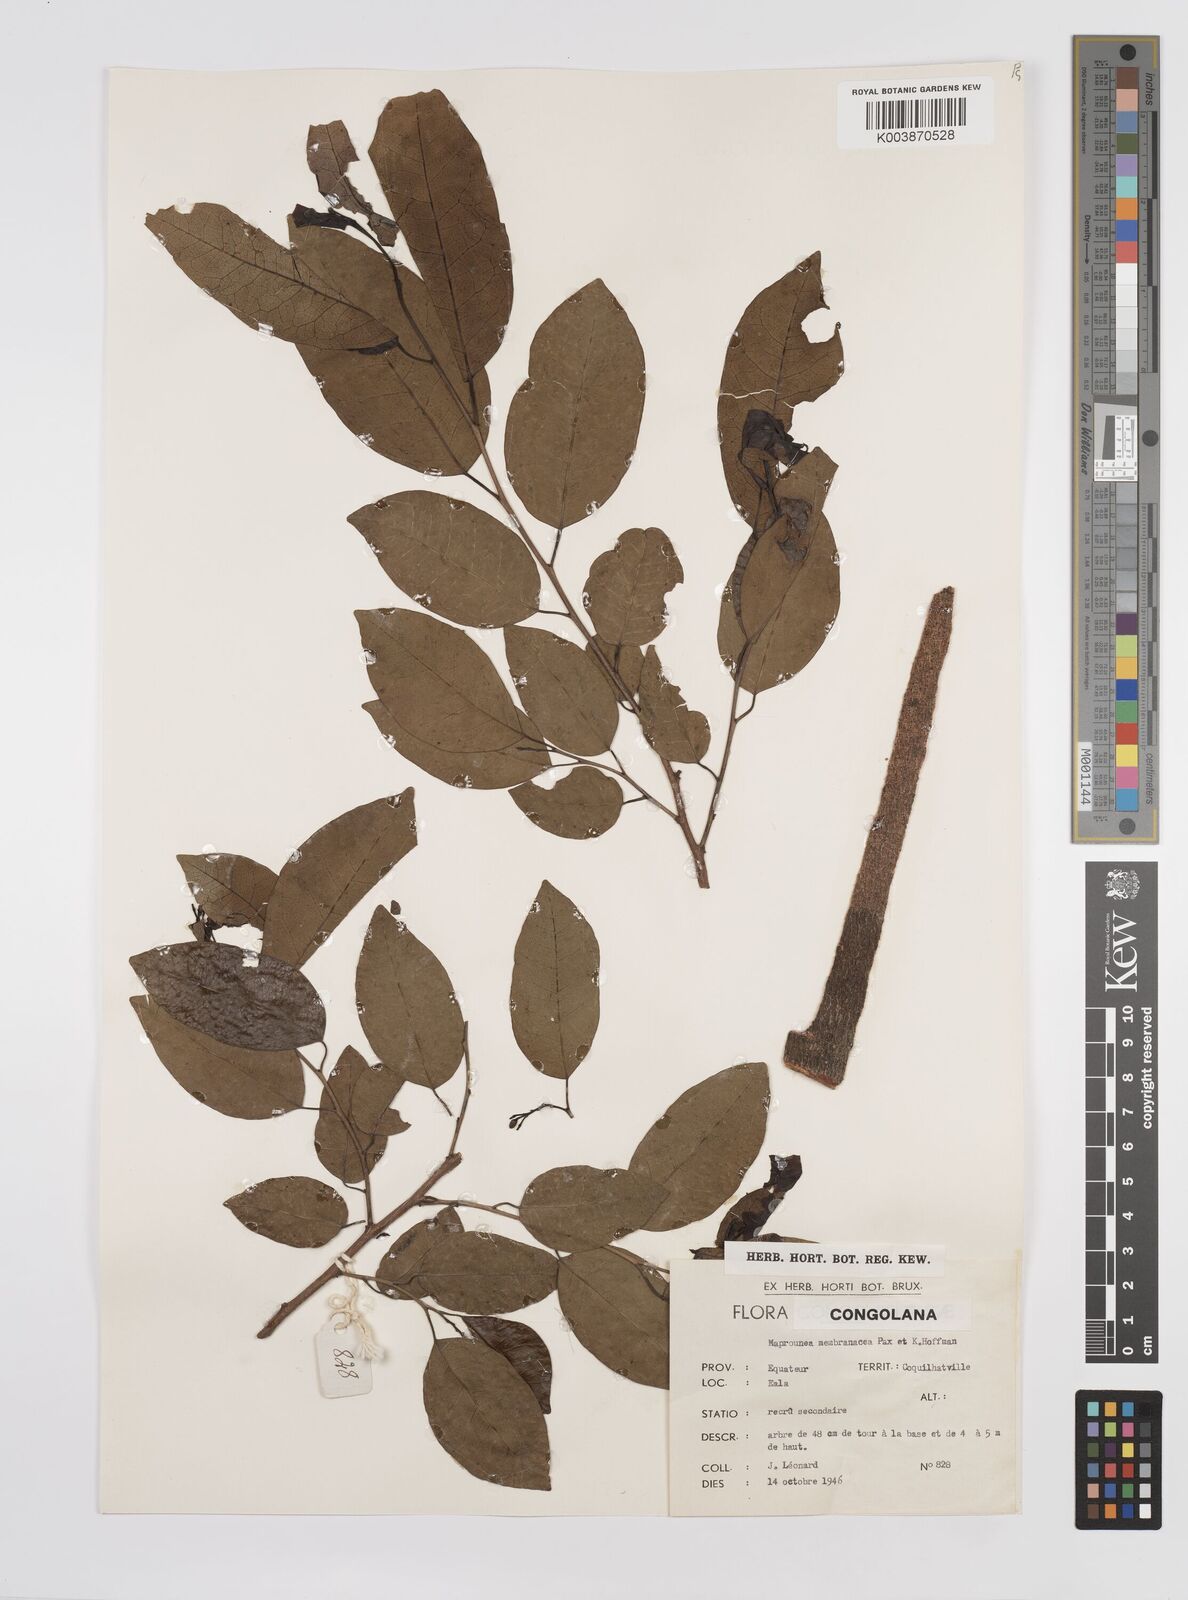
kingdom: Plantae
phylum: Tracheophyta
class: Magnoliopsida
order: Malpighiales
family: Euphorbiaceae
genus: Maprounea
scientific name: Maprounea membranacea
